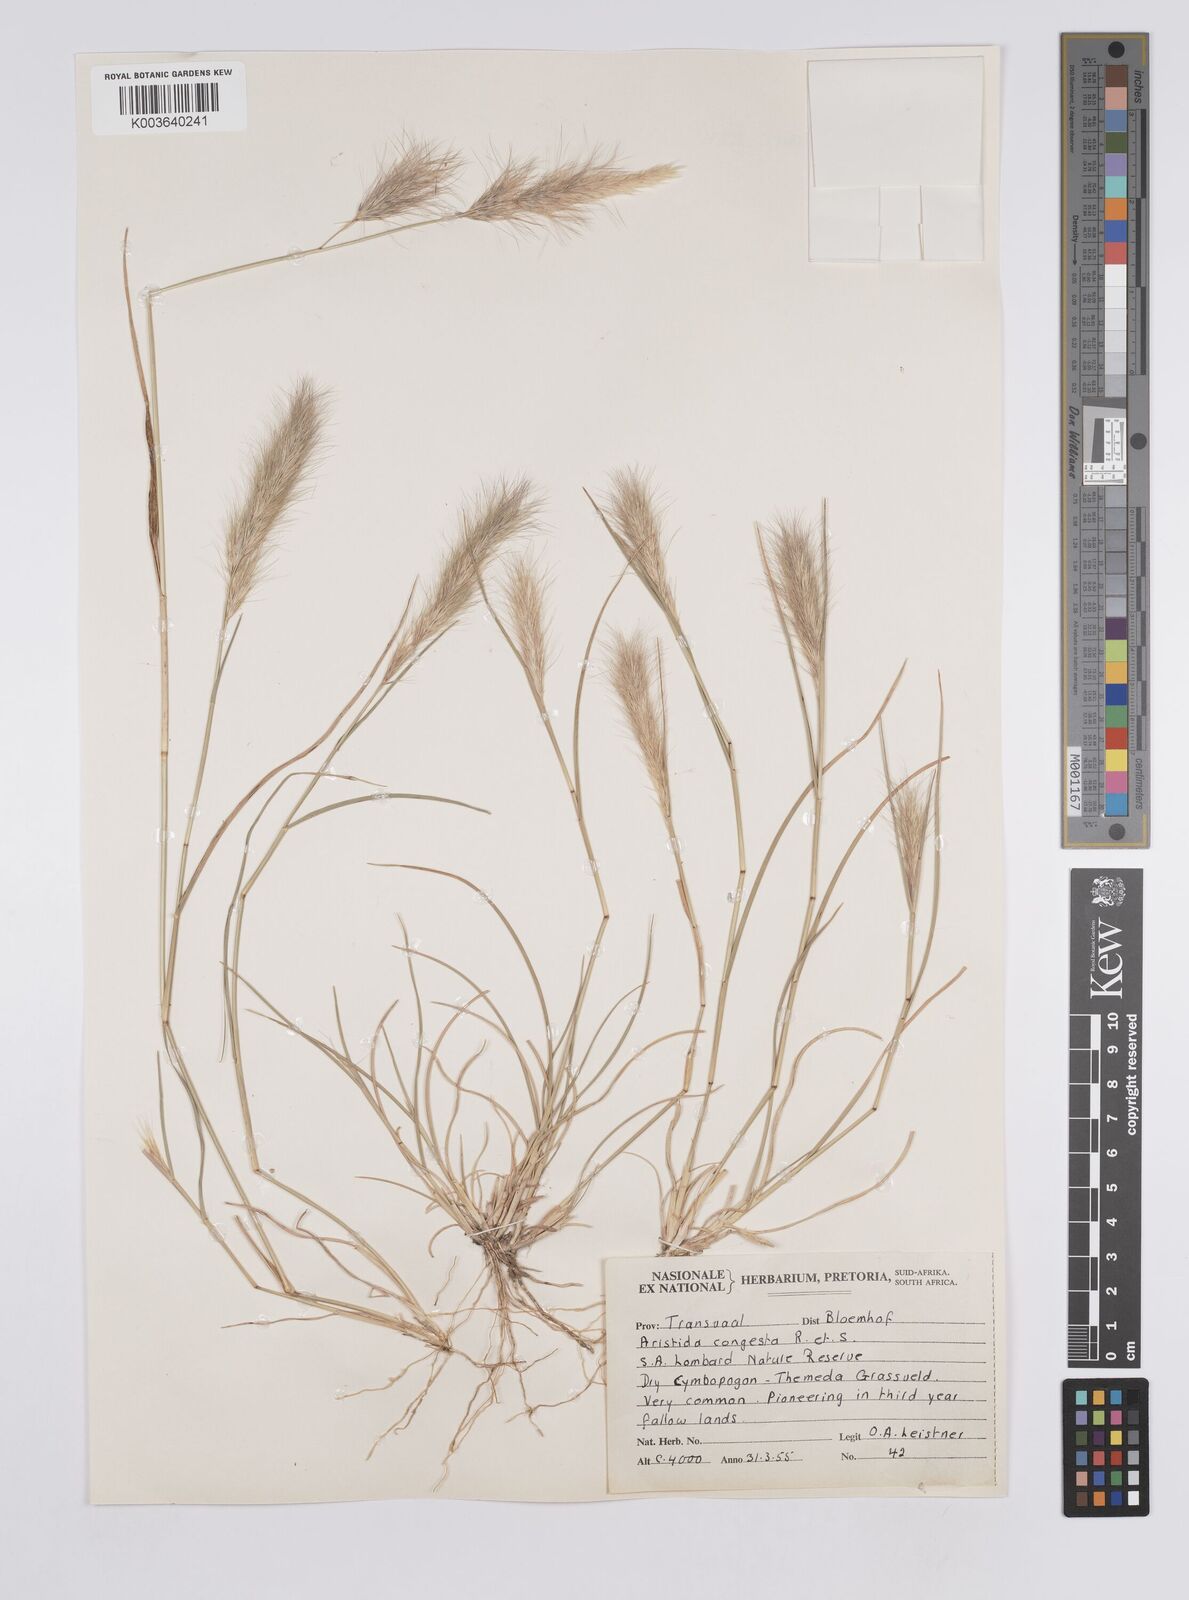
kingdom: Plantae
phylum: Tracheophyta
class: Liliopsida
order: Poales
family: Poaceae
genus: Aristida
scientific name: Aristida congesta
